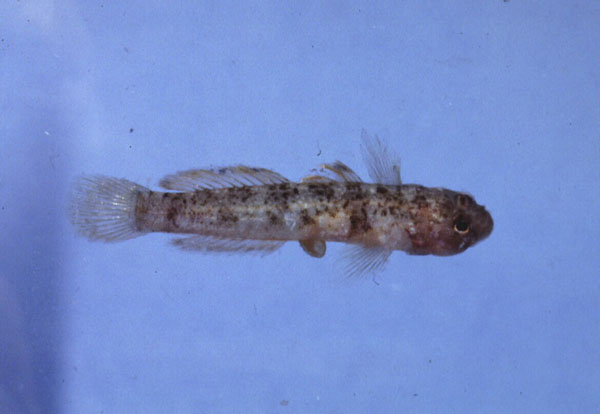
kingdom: Animalia
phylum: Chordata
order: Perciformes
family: Gobiidae
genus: Hetereleotris
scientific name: Hetereleotris nebulofasciata
